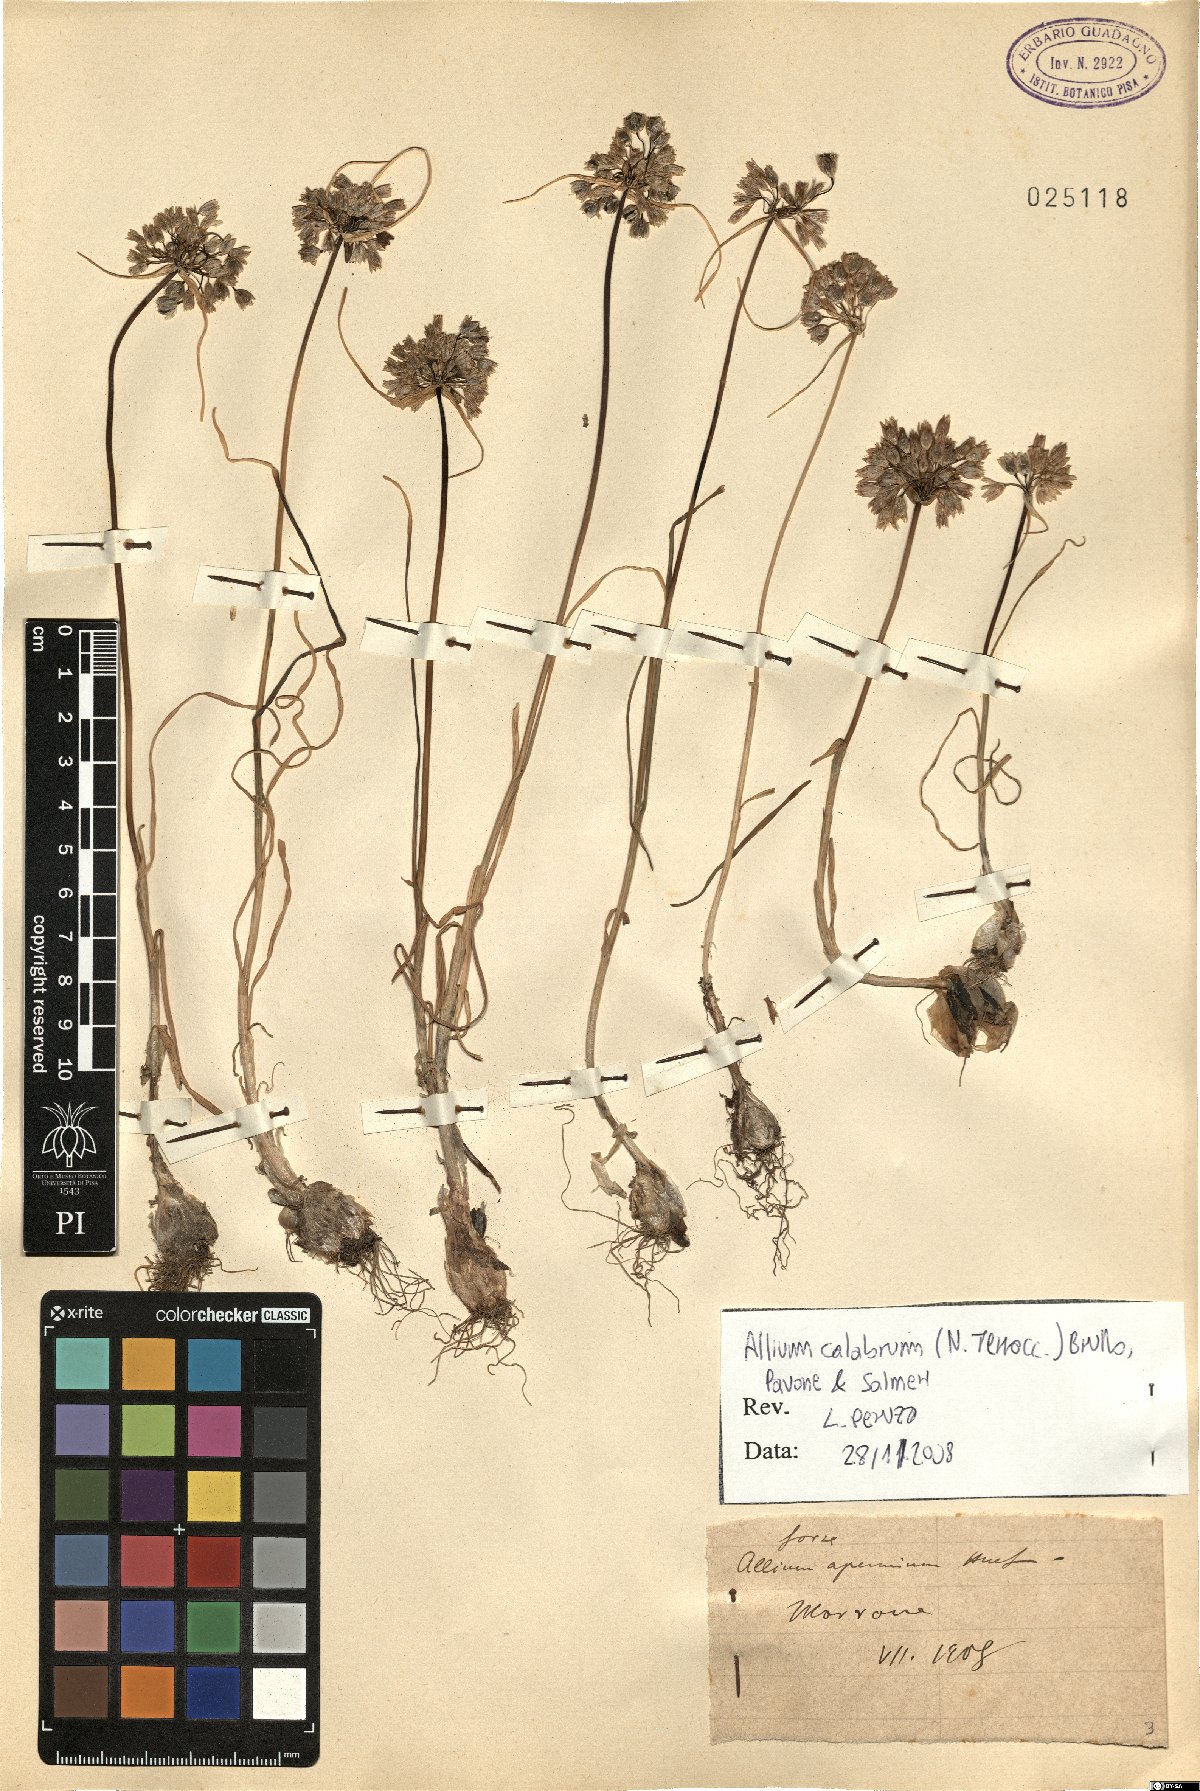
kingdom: Plantae
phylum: Tracheophyta
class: Liliopsida
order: Asparagales
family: Amaryllidaceae
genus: Allium
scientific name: Allium calabrum
